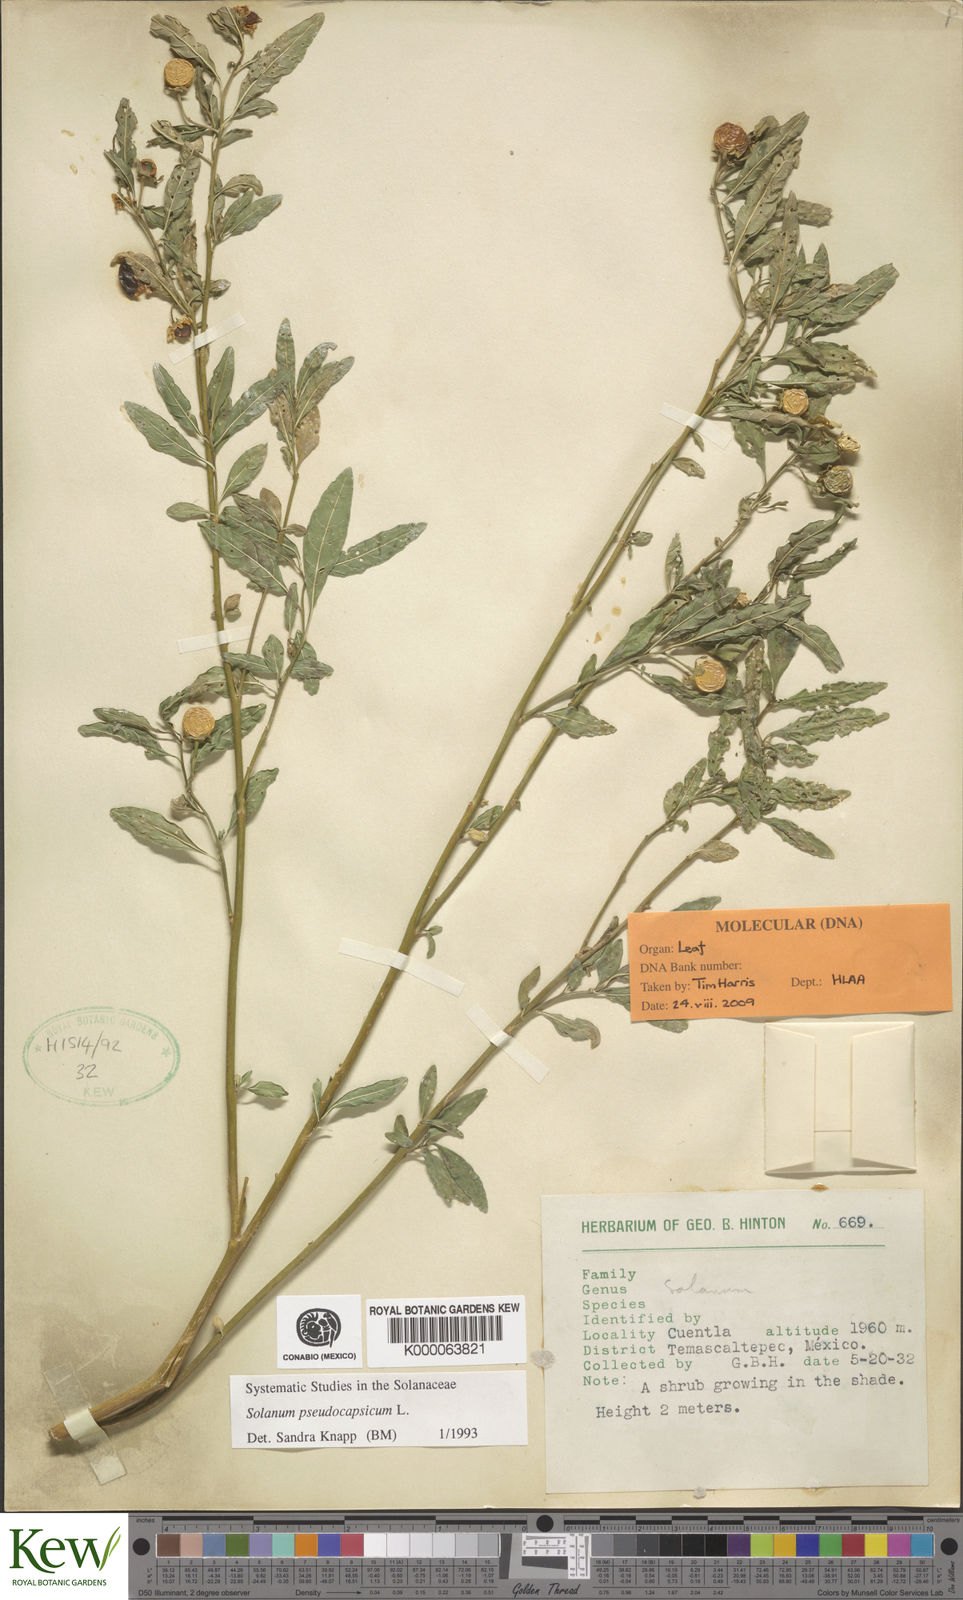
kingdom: Plantae
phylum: Tracheophyta
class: Magnoliopsida
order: Solanales
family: Solanaceae
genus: Solanum
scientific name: Solanum pseudocapsicum
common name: Jerusalem cherry
